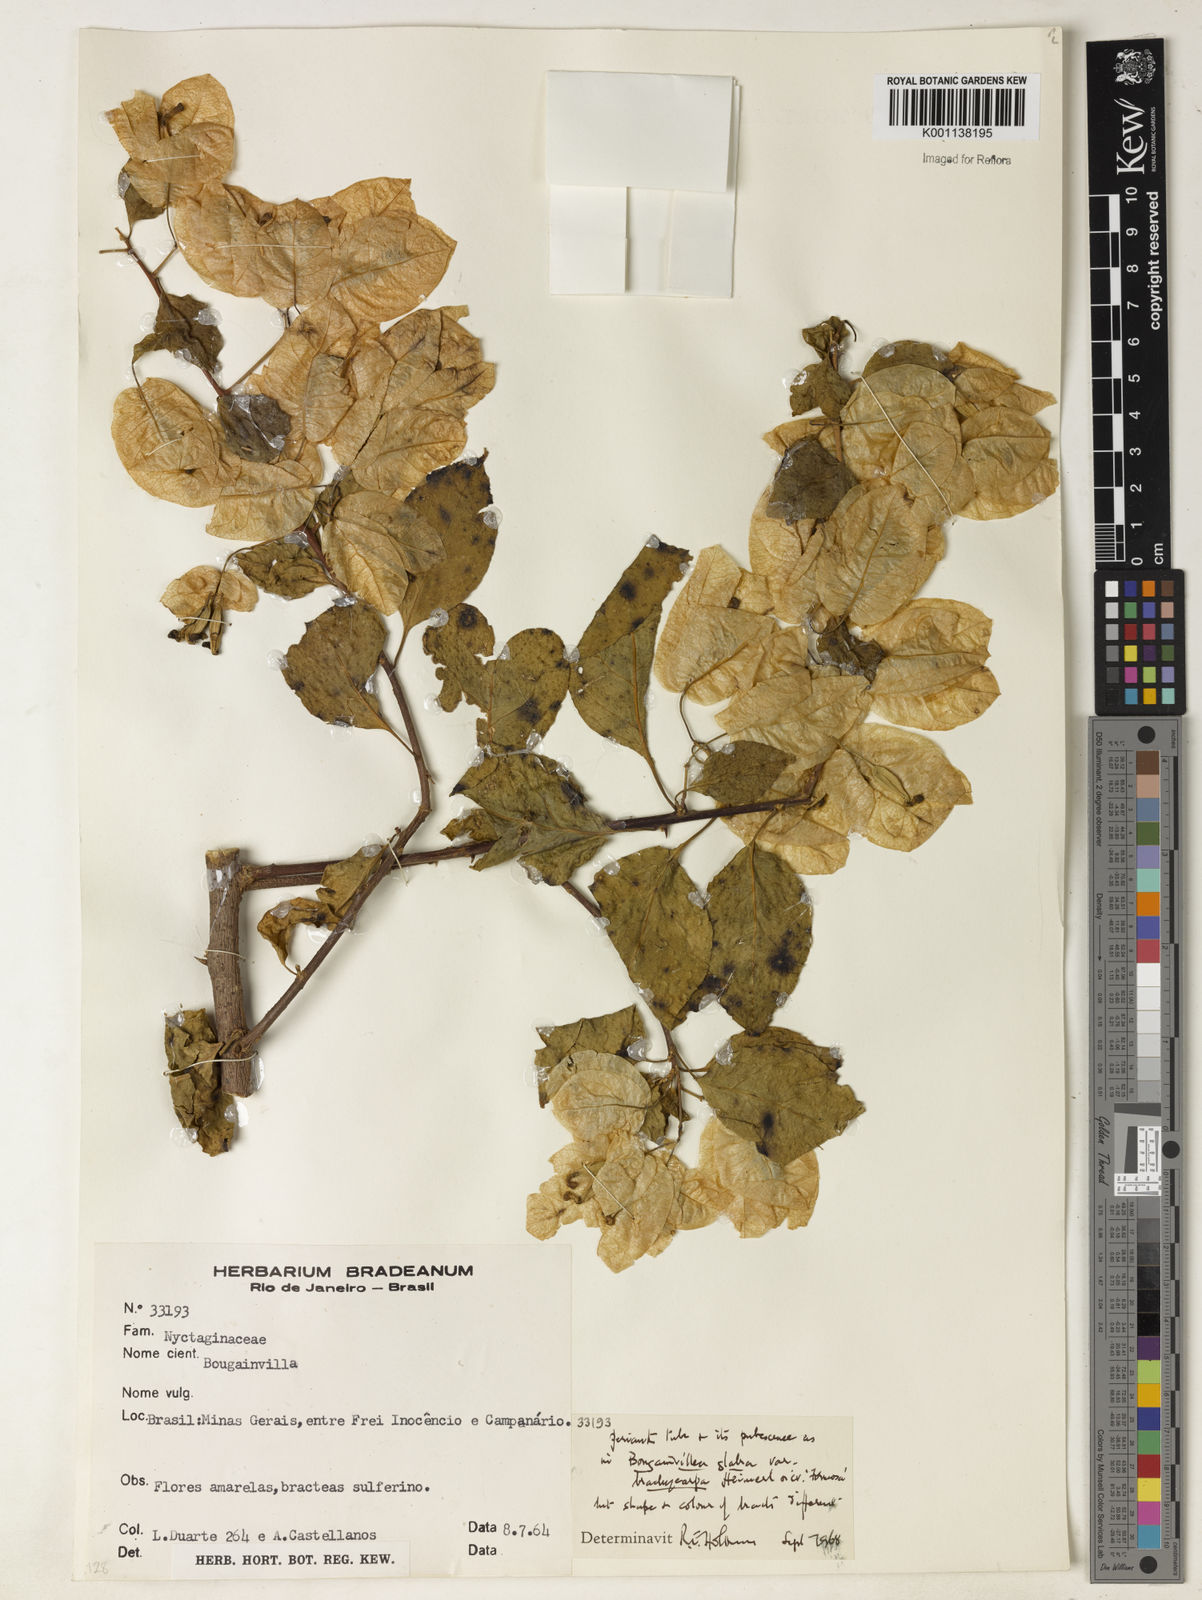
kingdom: Plantae
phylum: Tracheophyta
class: Magnoliopsida
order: Caryophyllales
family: Nyctaginaceae
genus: Bougainvillea
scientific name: Bougainvillea glabra
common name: Paperflower
